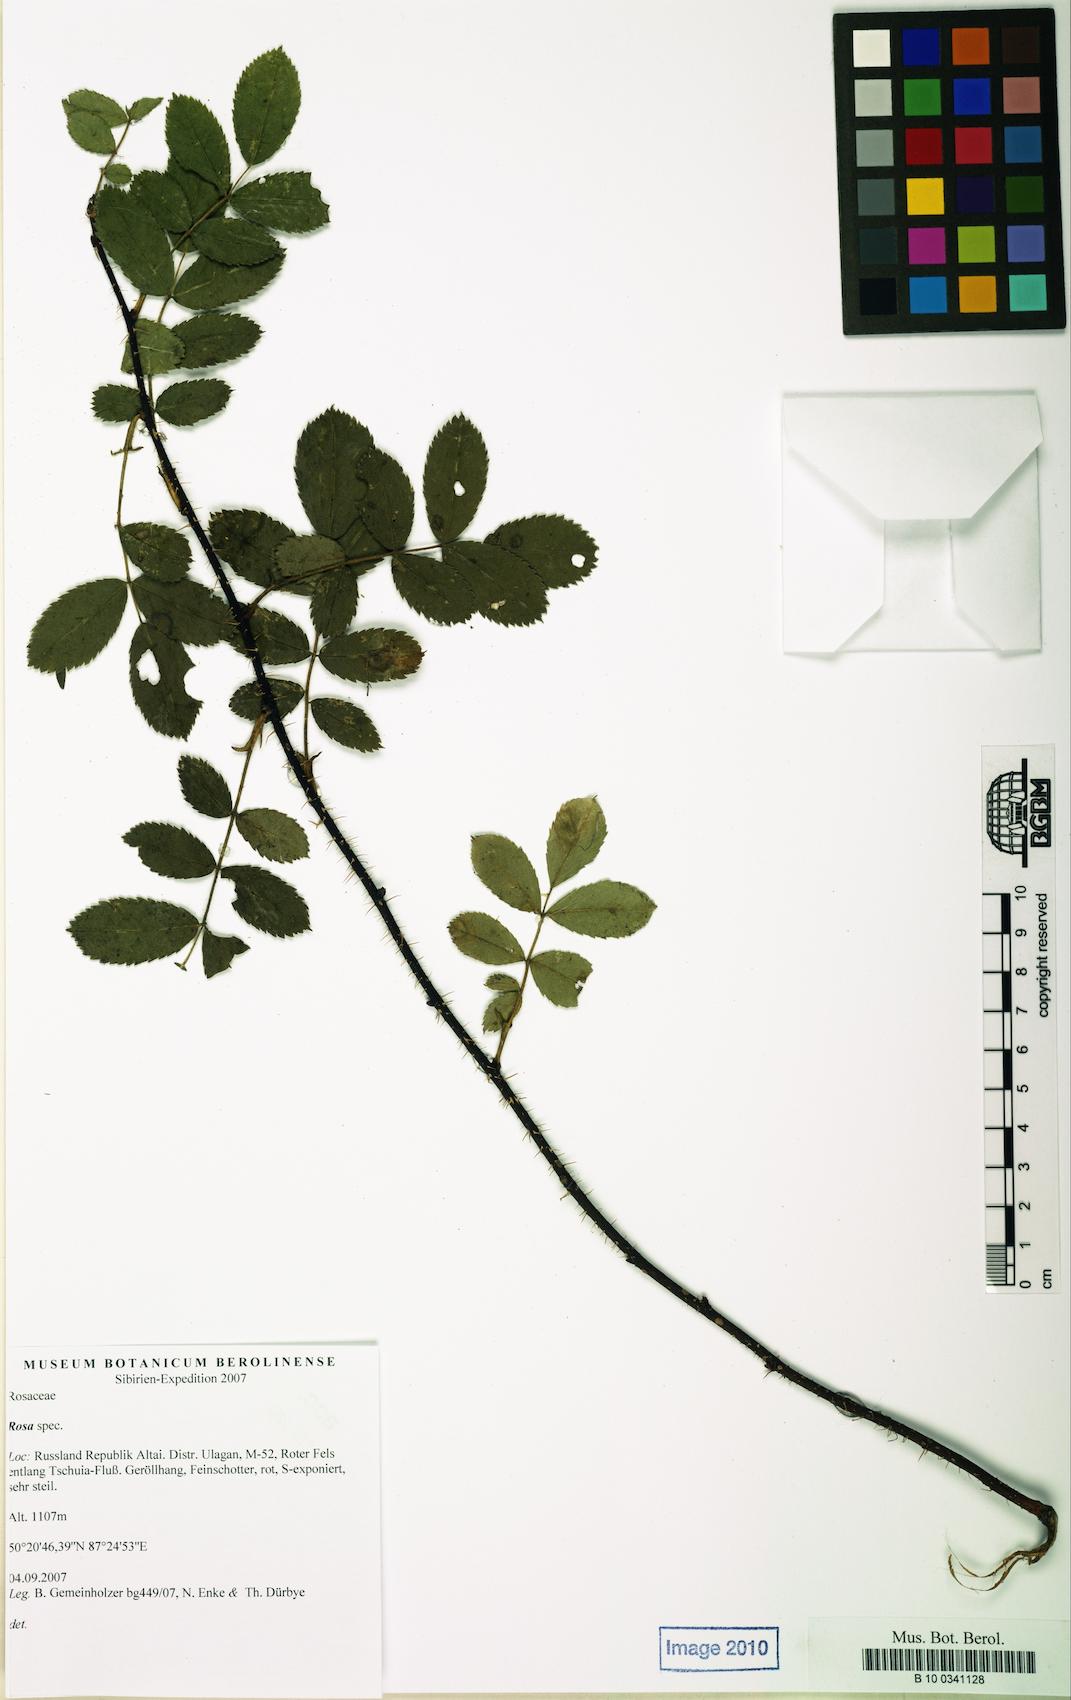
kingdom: Plantae
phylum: Tracheophyta
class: Magnoliopsida
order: Rosales
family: Rosaceae
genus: Rosa
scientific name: Rosa
